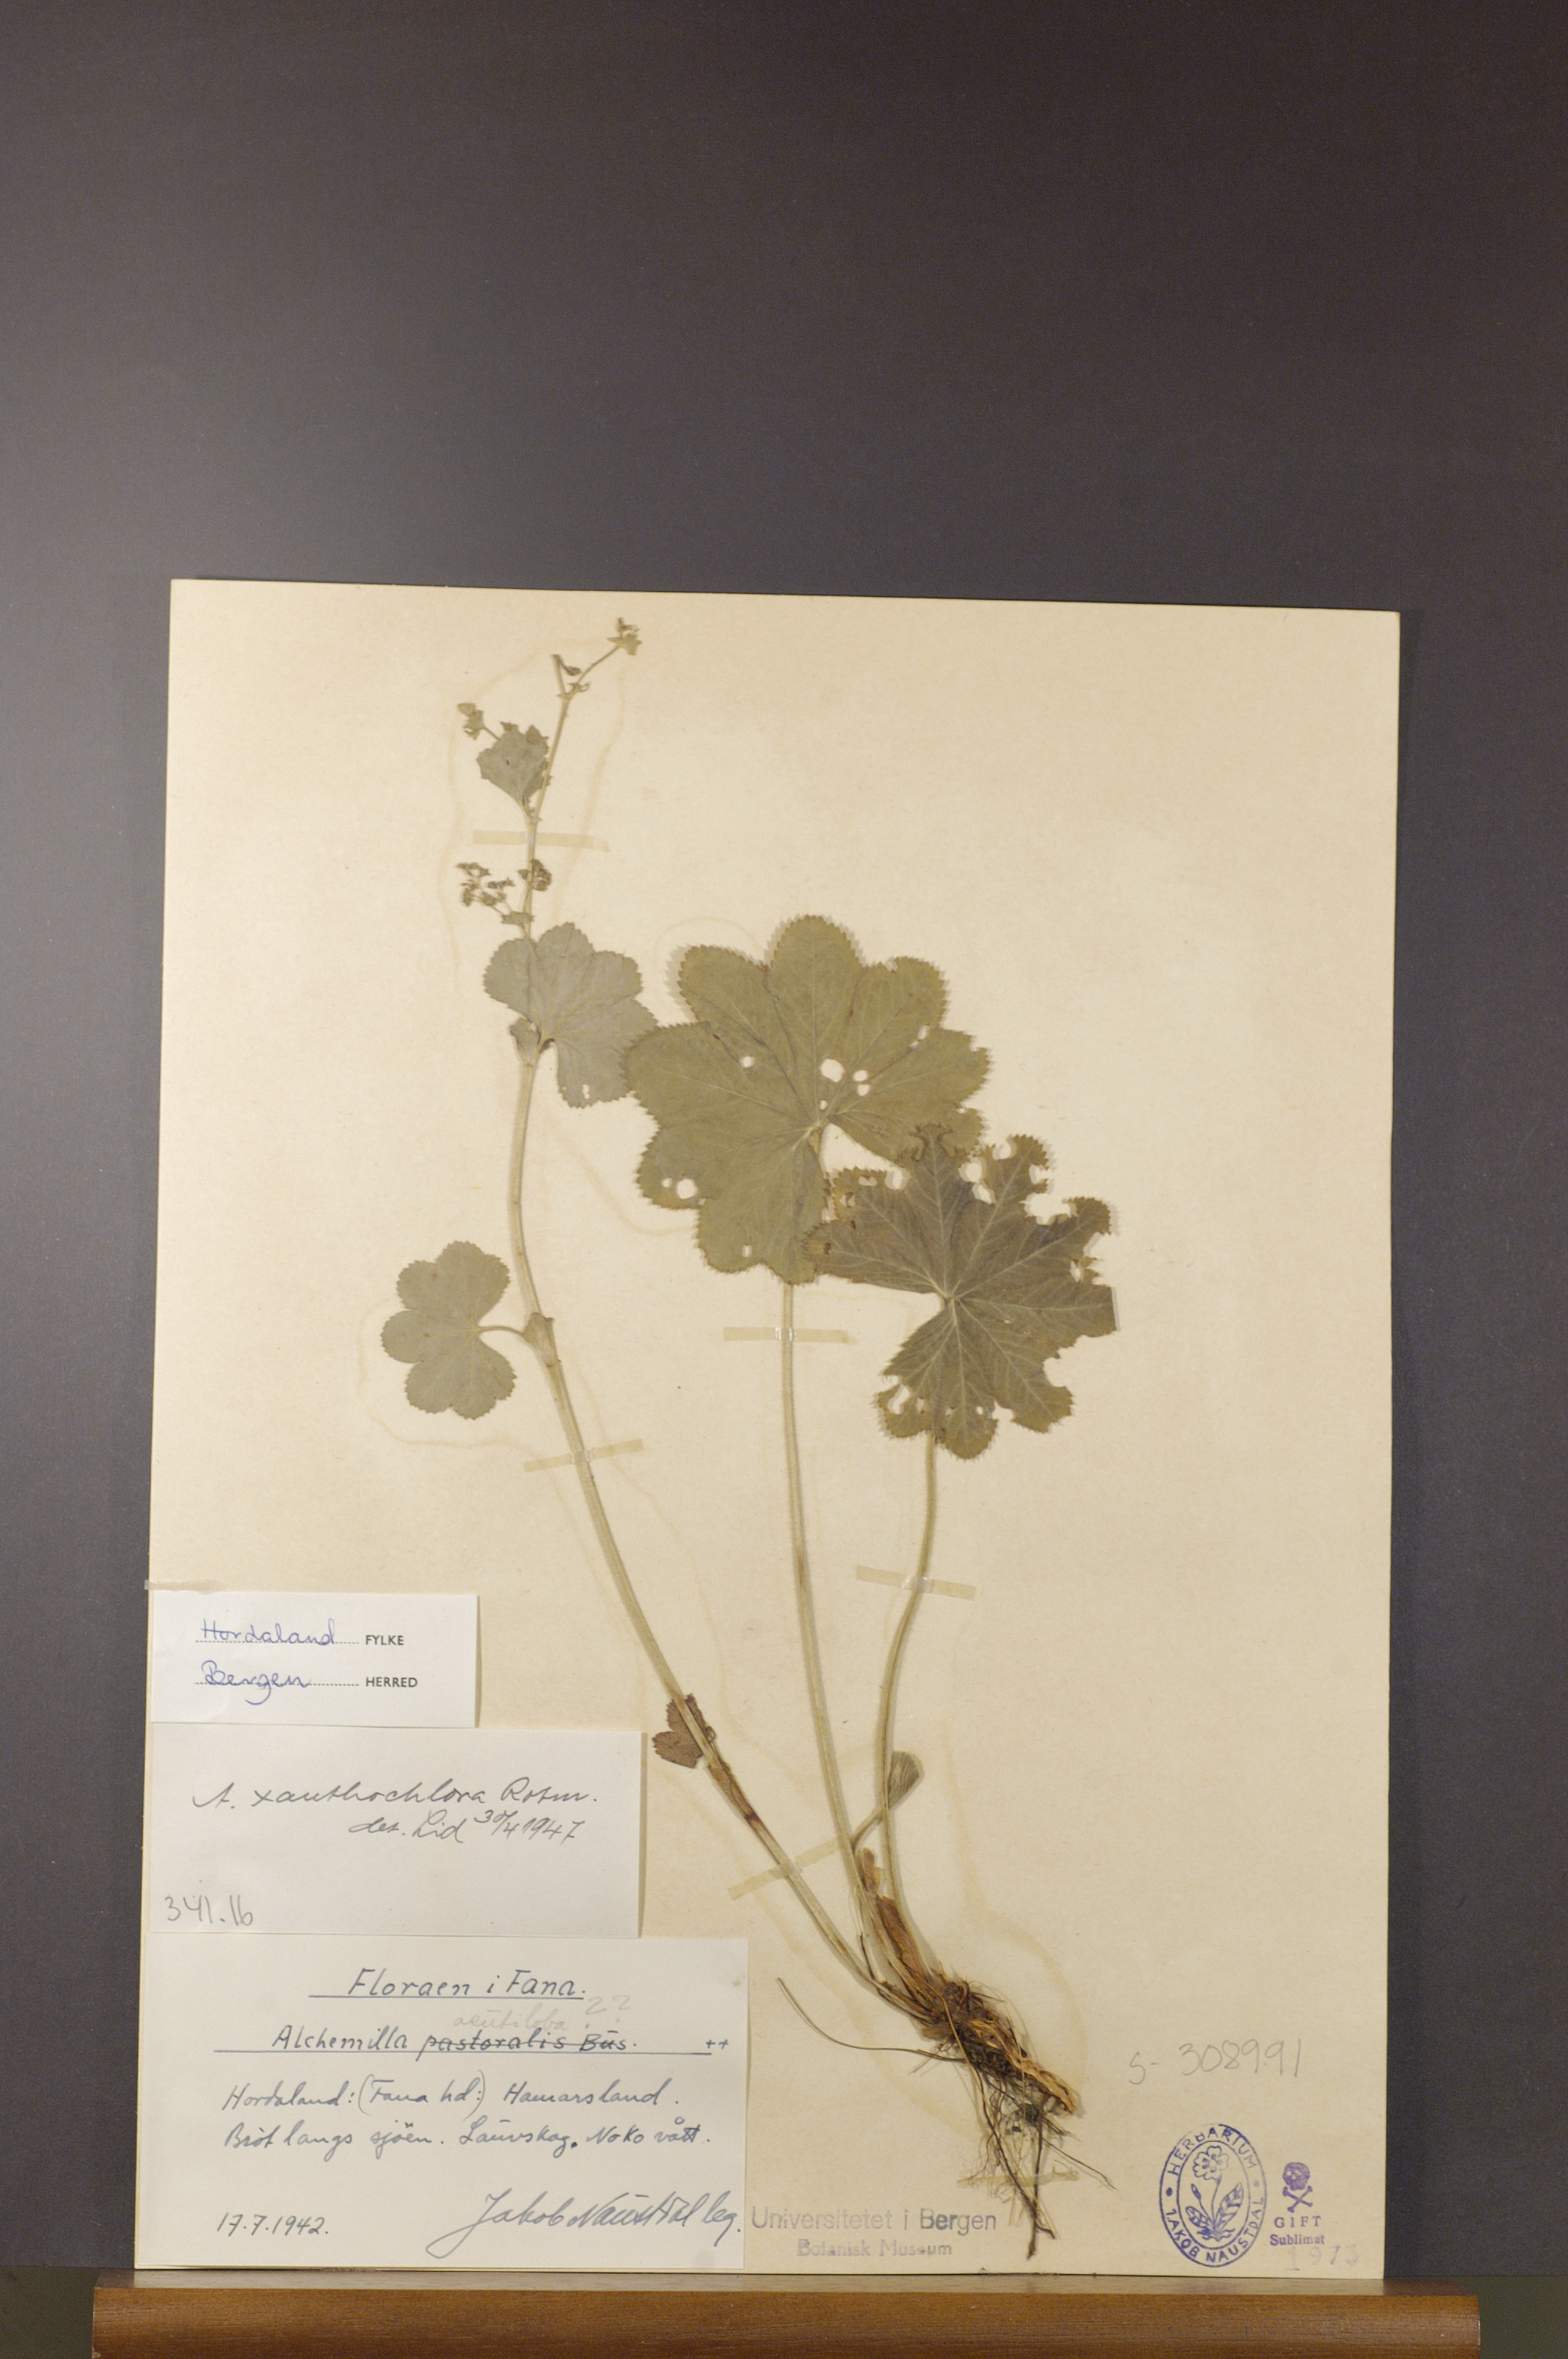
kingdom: Plantae
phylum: Tracheophyta
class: Magnoliopsida
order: Rosales
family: Rosaceae
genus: Alchemilla
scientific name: Alchemilla xanthochlora
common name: Intermediate lady's-mantle
